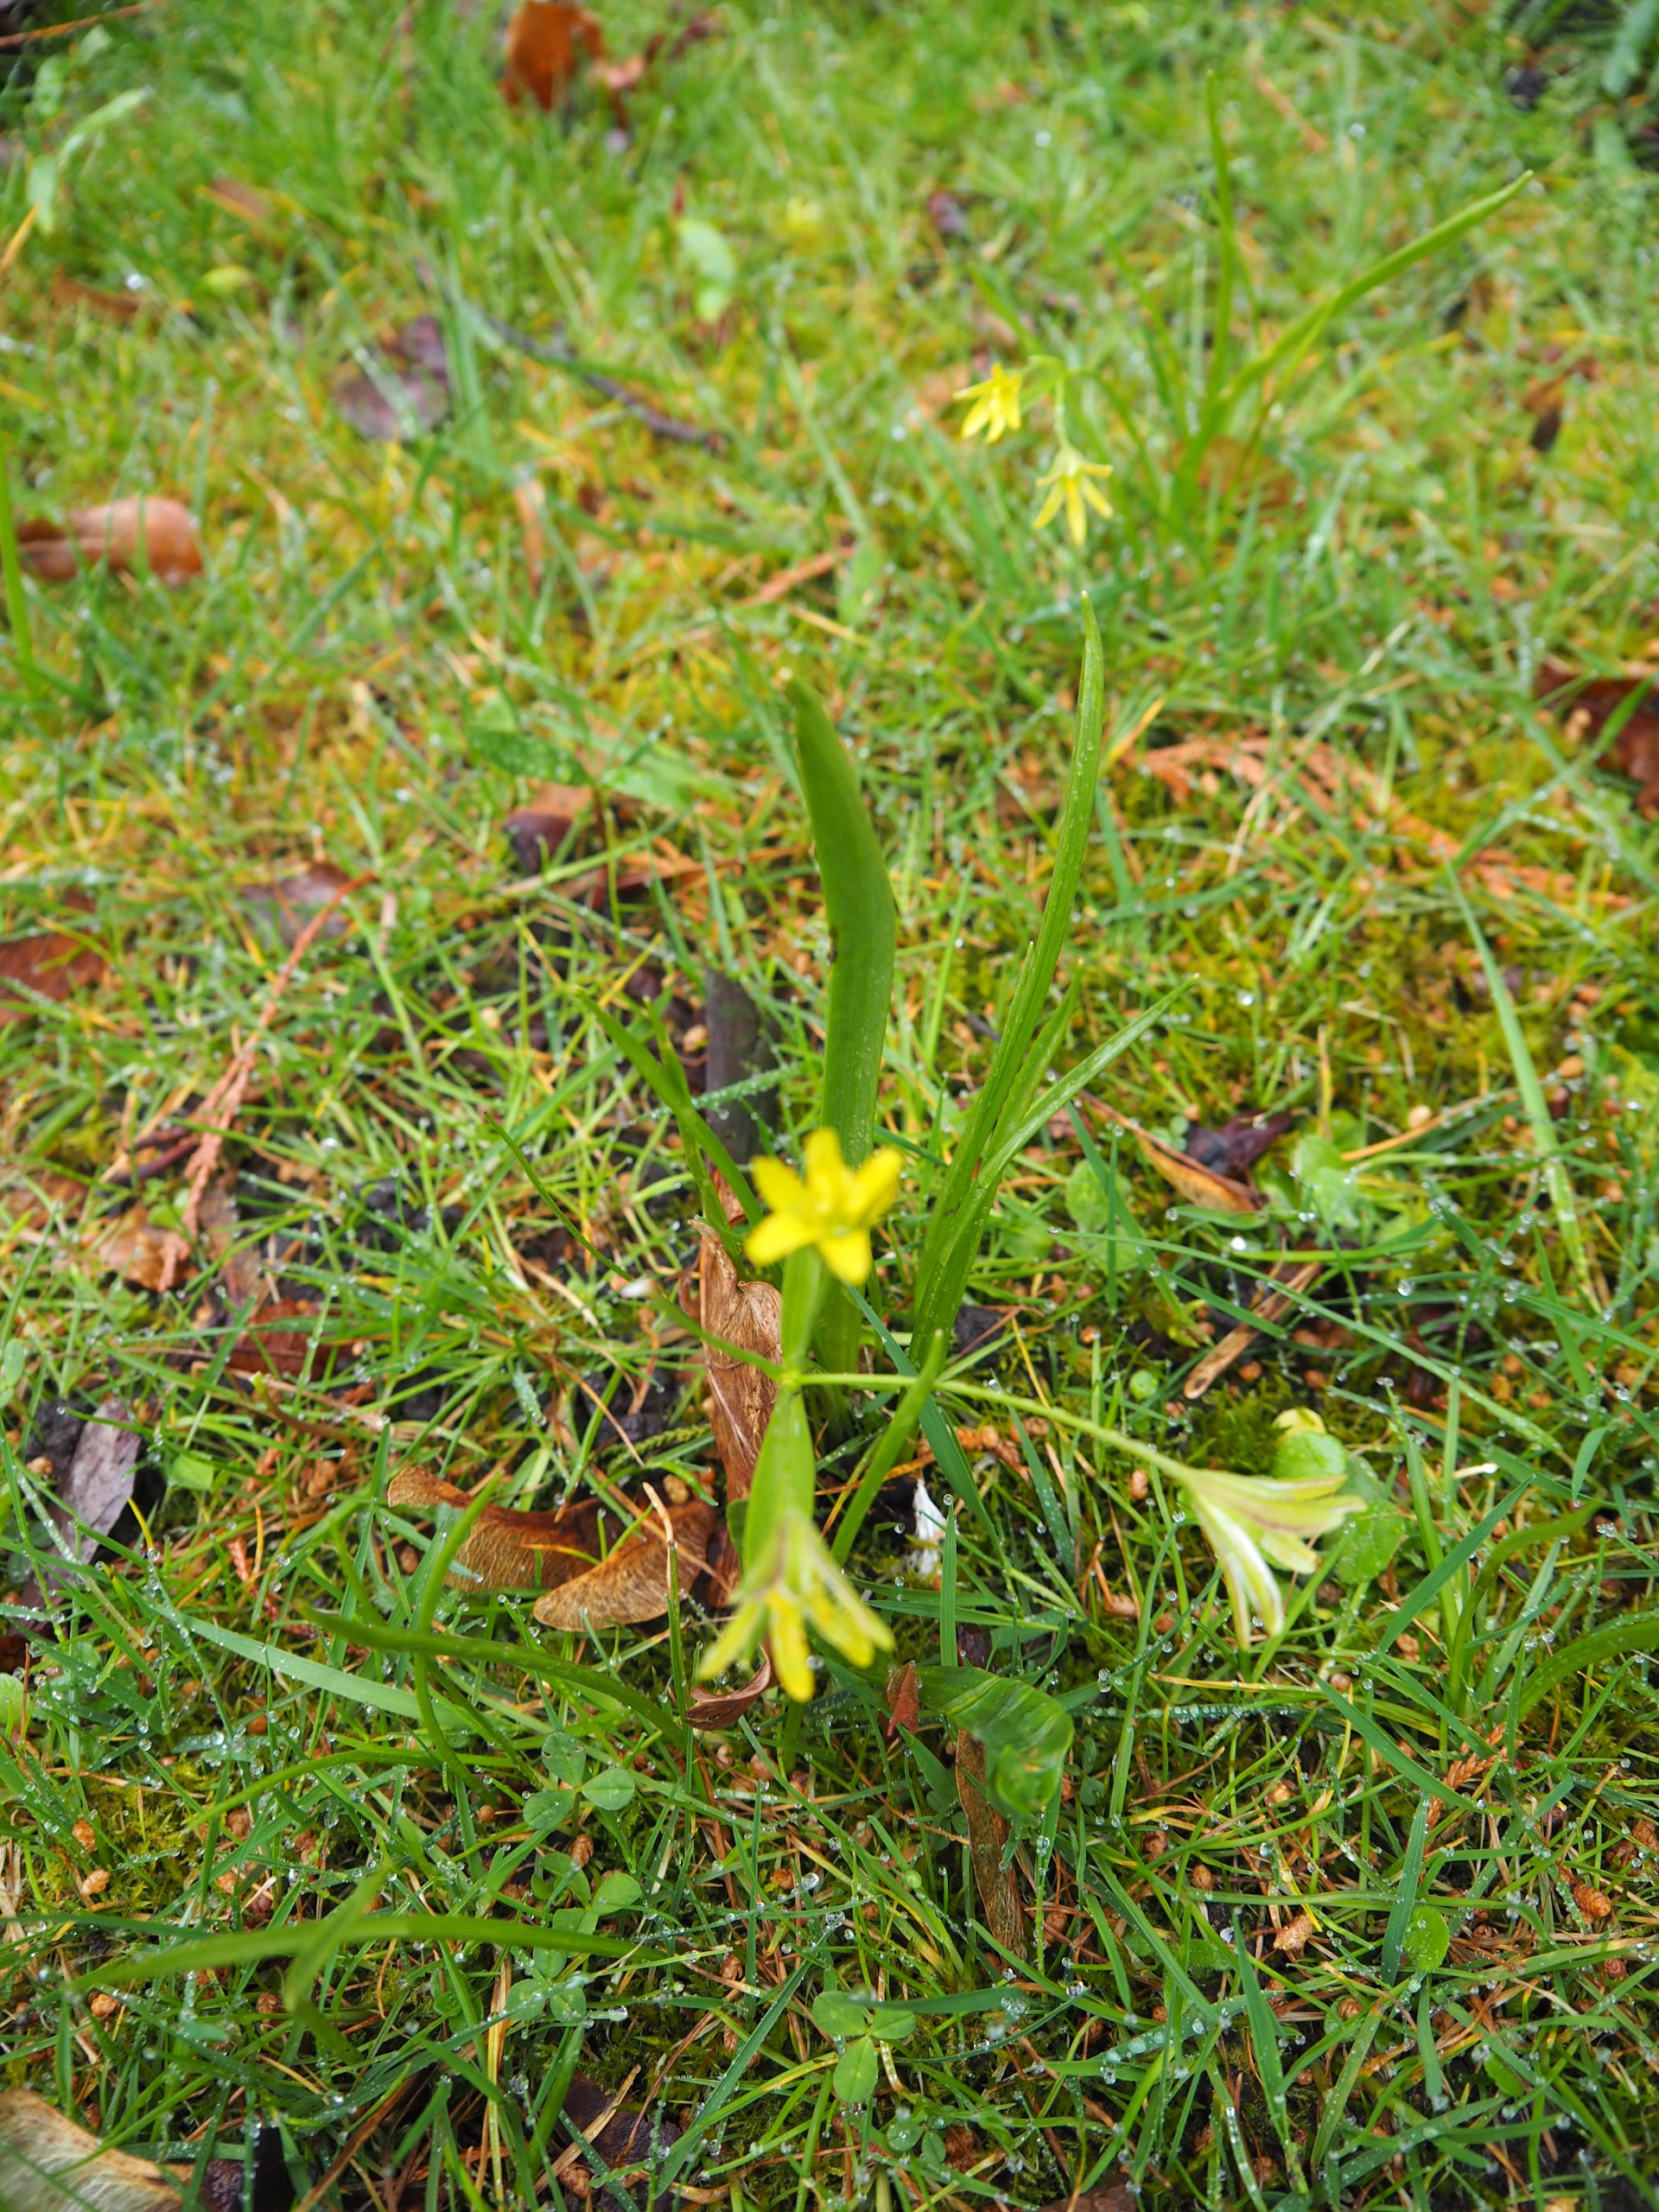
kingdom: Plantae
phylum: Tracheophyta
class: Liliopsida
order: Liliales
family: Liliaceae
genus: Gagea
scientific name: Gagea lutea
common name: Almindelig guldstjerne
